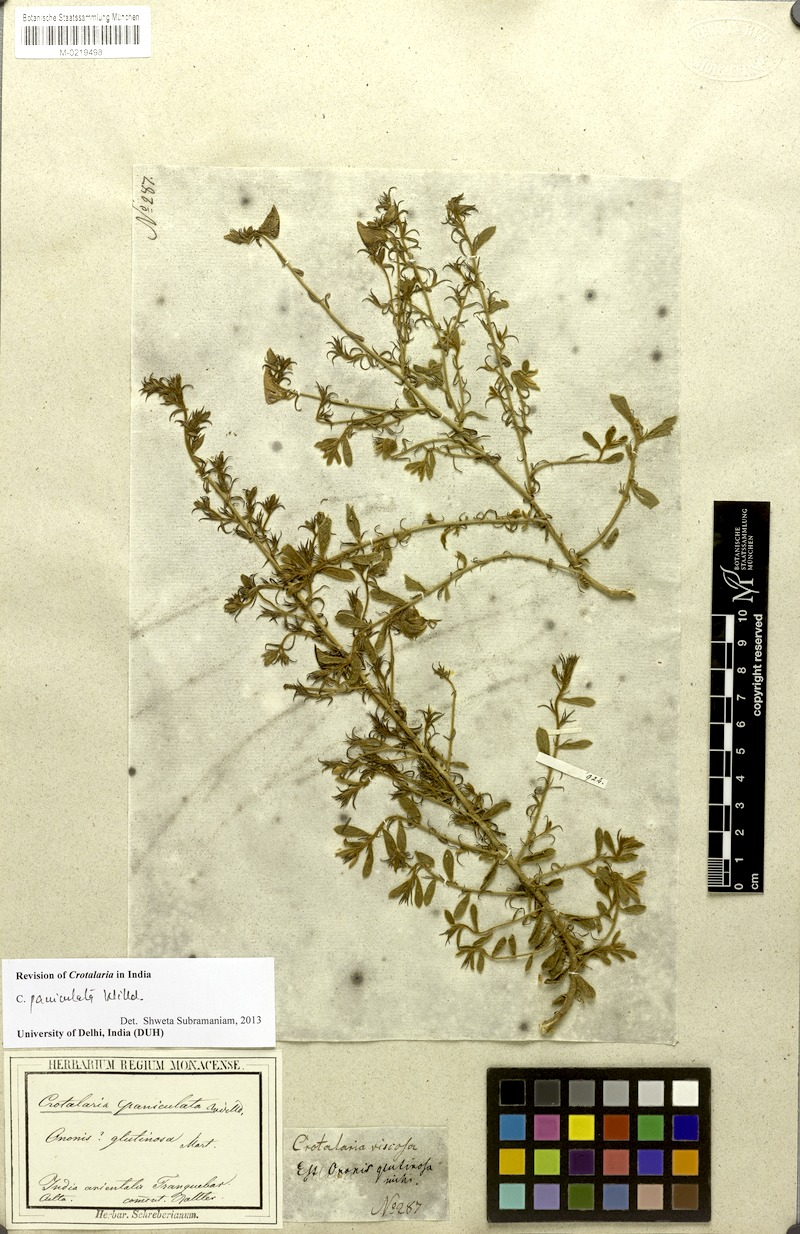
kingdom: Plantae
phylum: Tracheophyta
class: Magnoliopsida
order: Fabales
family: Fabaceae
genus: Crotalaria
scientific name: Crotalaria paniculata
